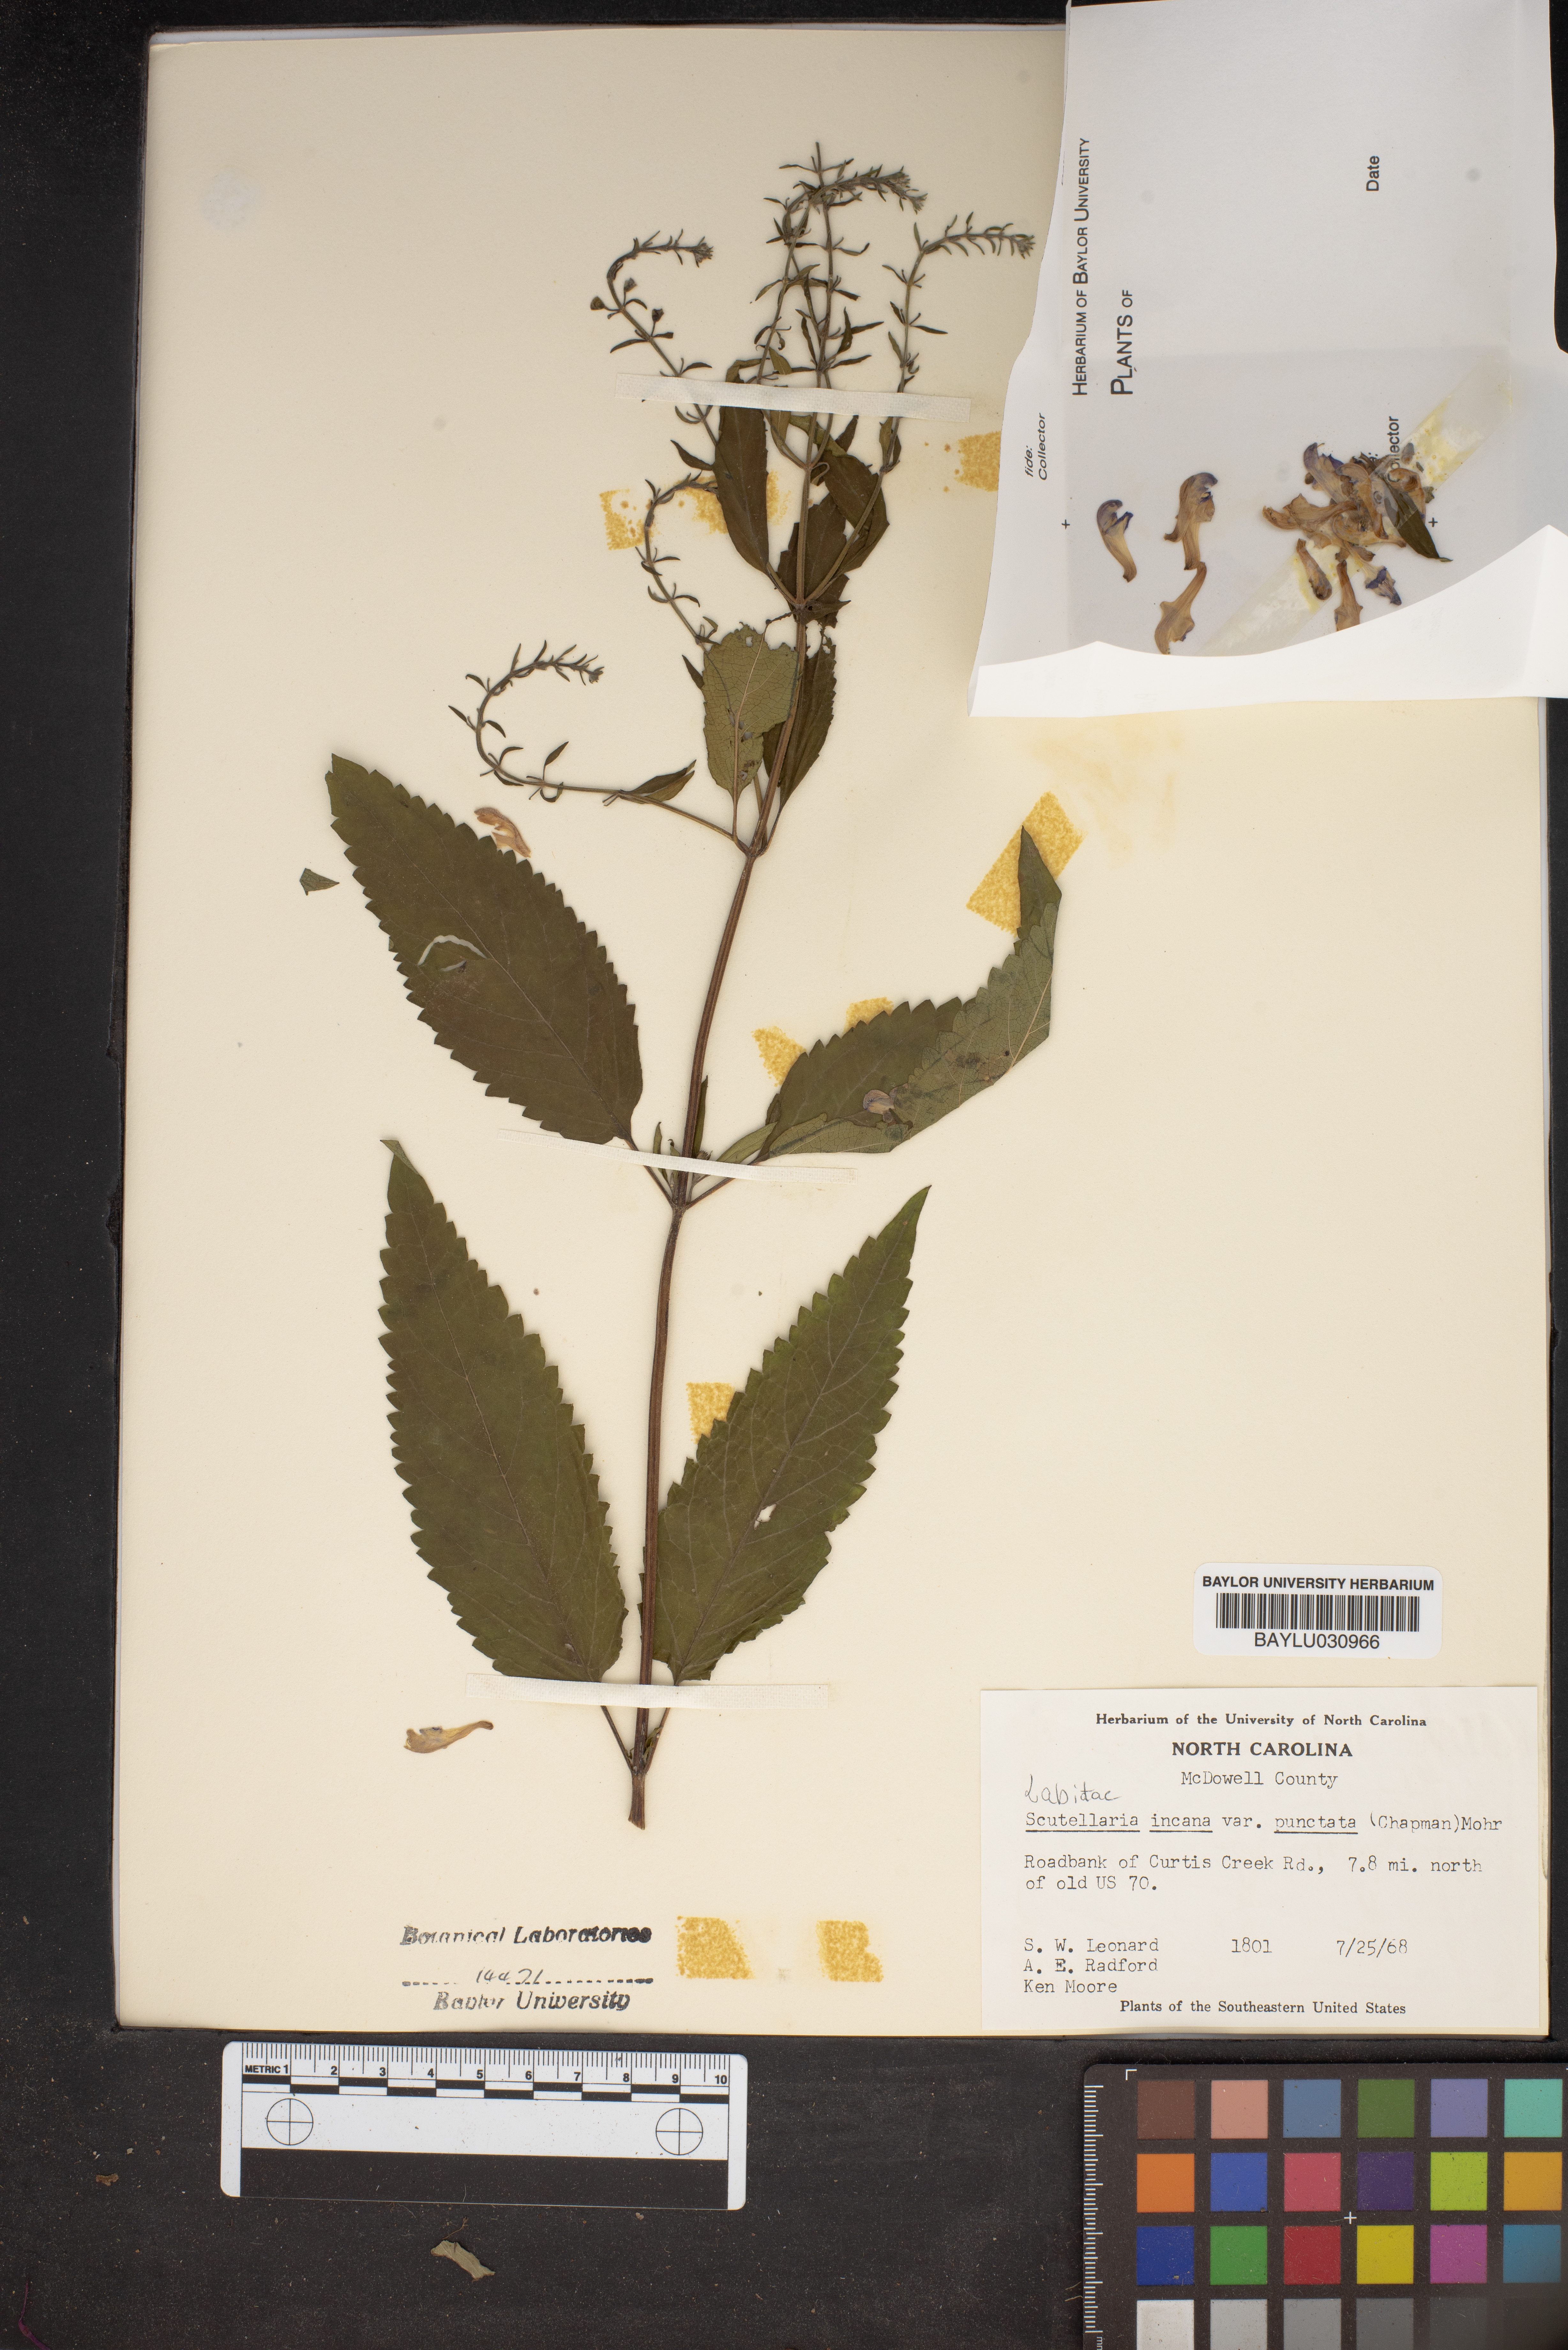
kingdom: Plantae
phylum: Tracheophyta
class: Magnoliopsida
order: Lamiales
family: Lamiaceae
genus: Scutellaria
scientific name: Scutellaria incana
